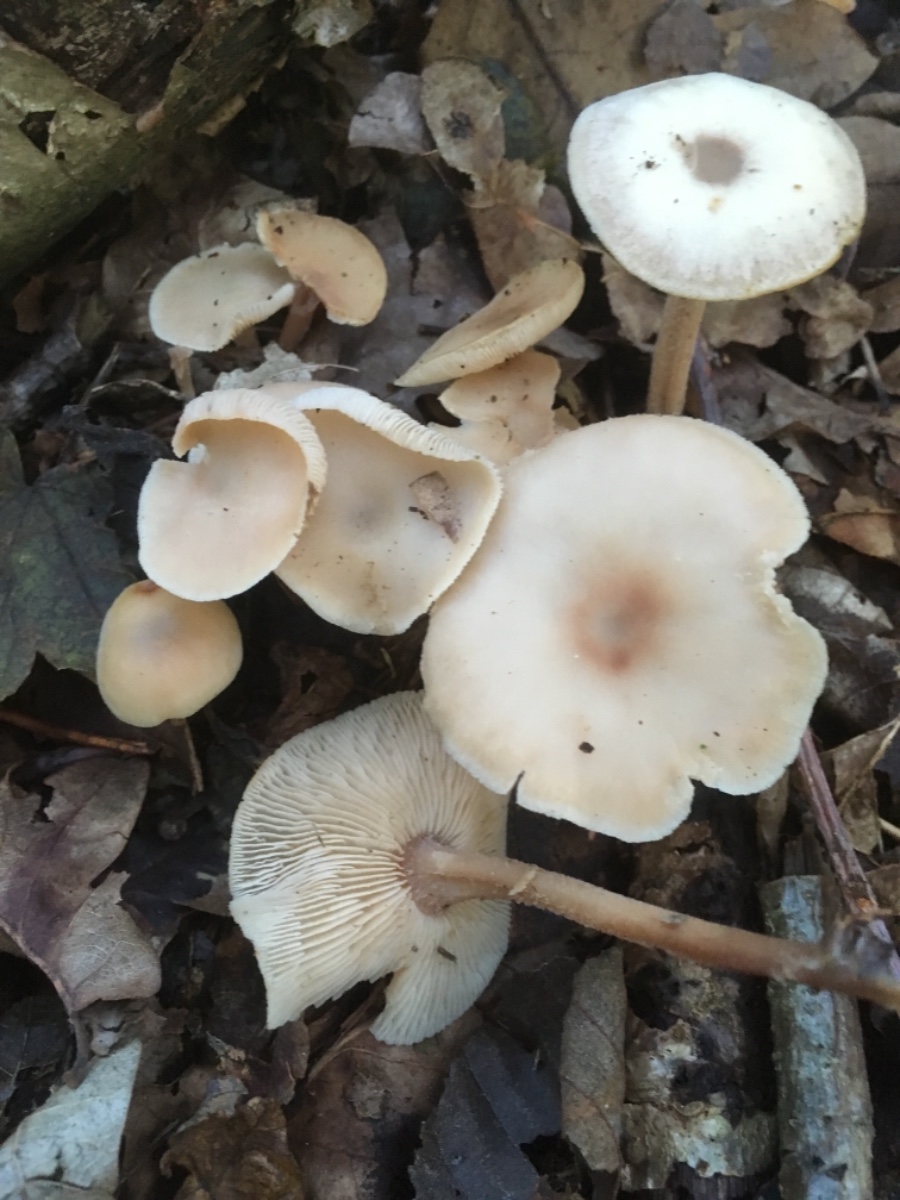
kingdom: Fungi
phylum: Basidiomycota
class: Agaricomycetes
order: Agaricales
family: Omphalotaceae
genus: Collybiopsis
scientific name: Collybiopsis confluens
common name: knippe-fladhat
